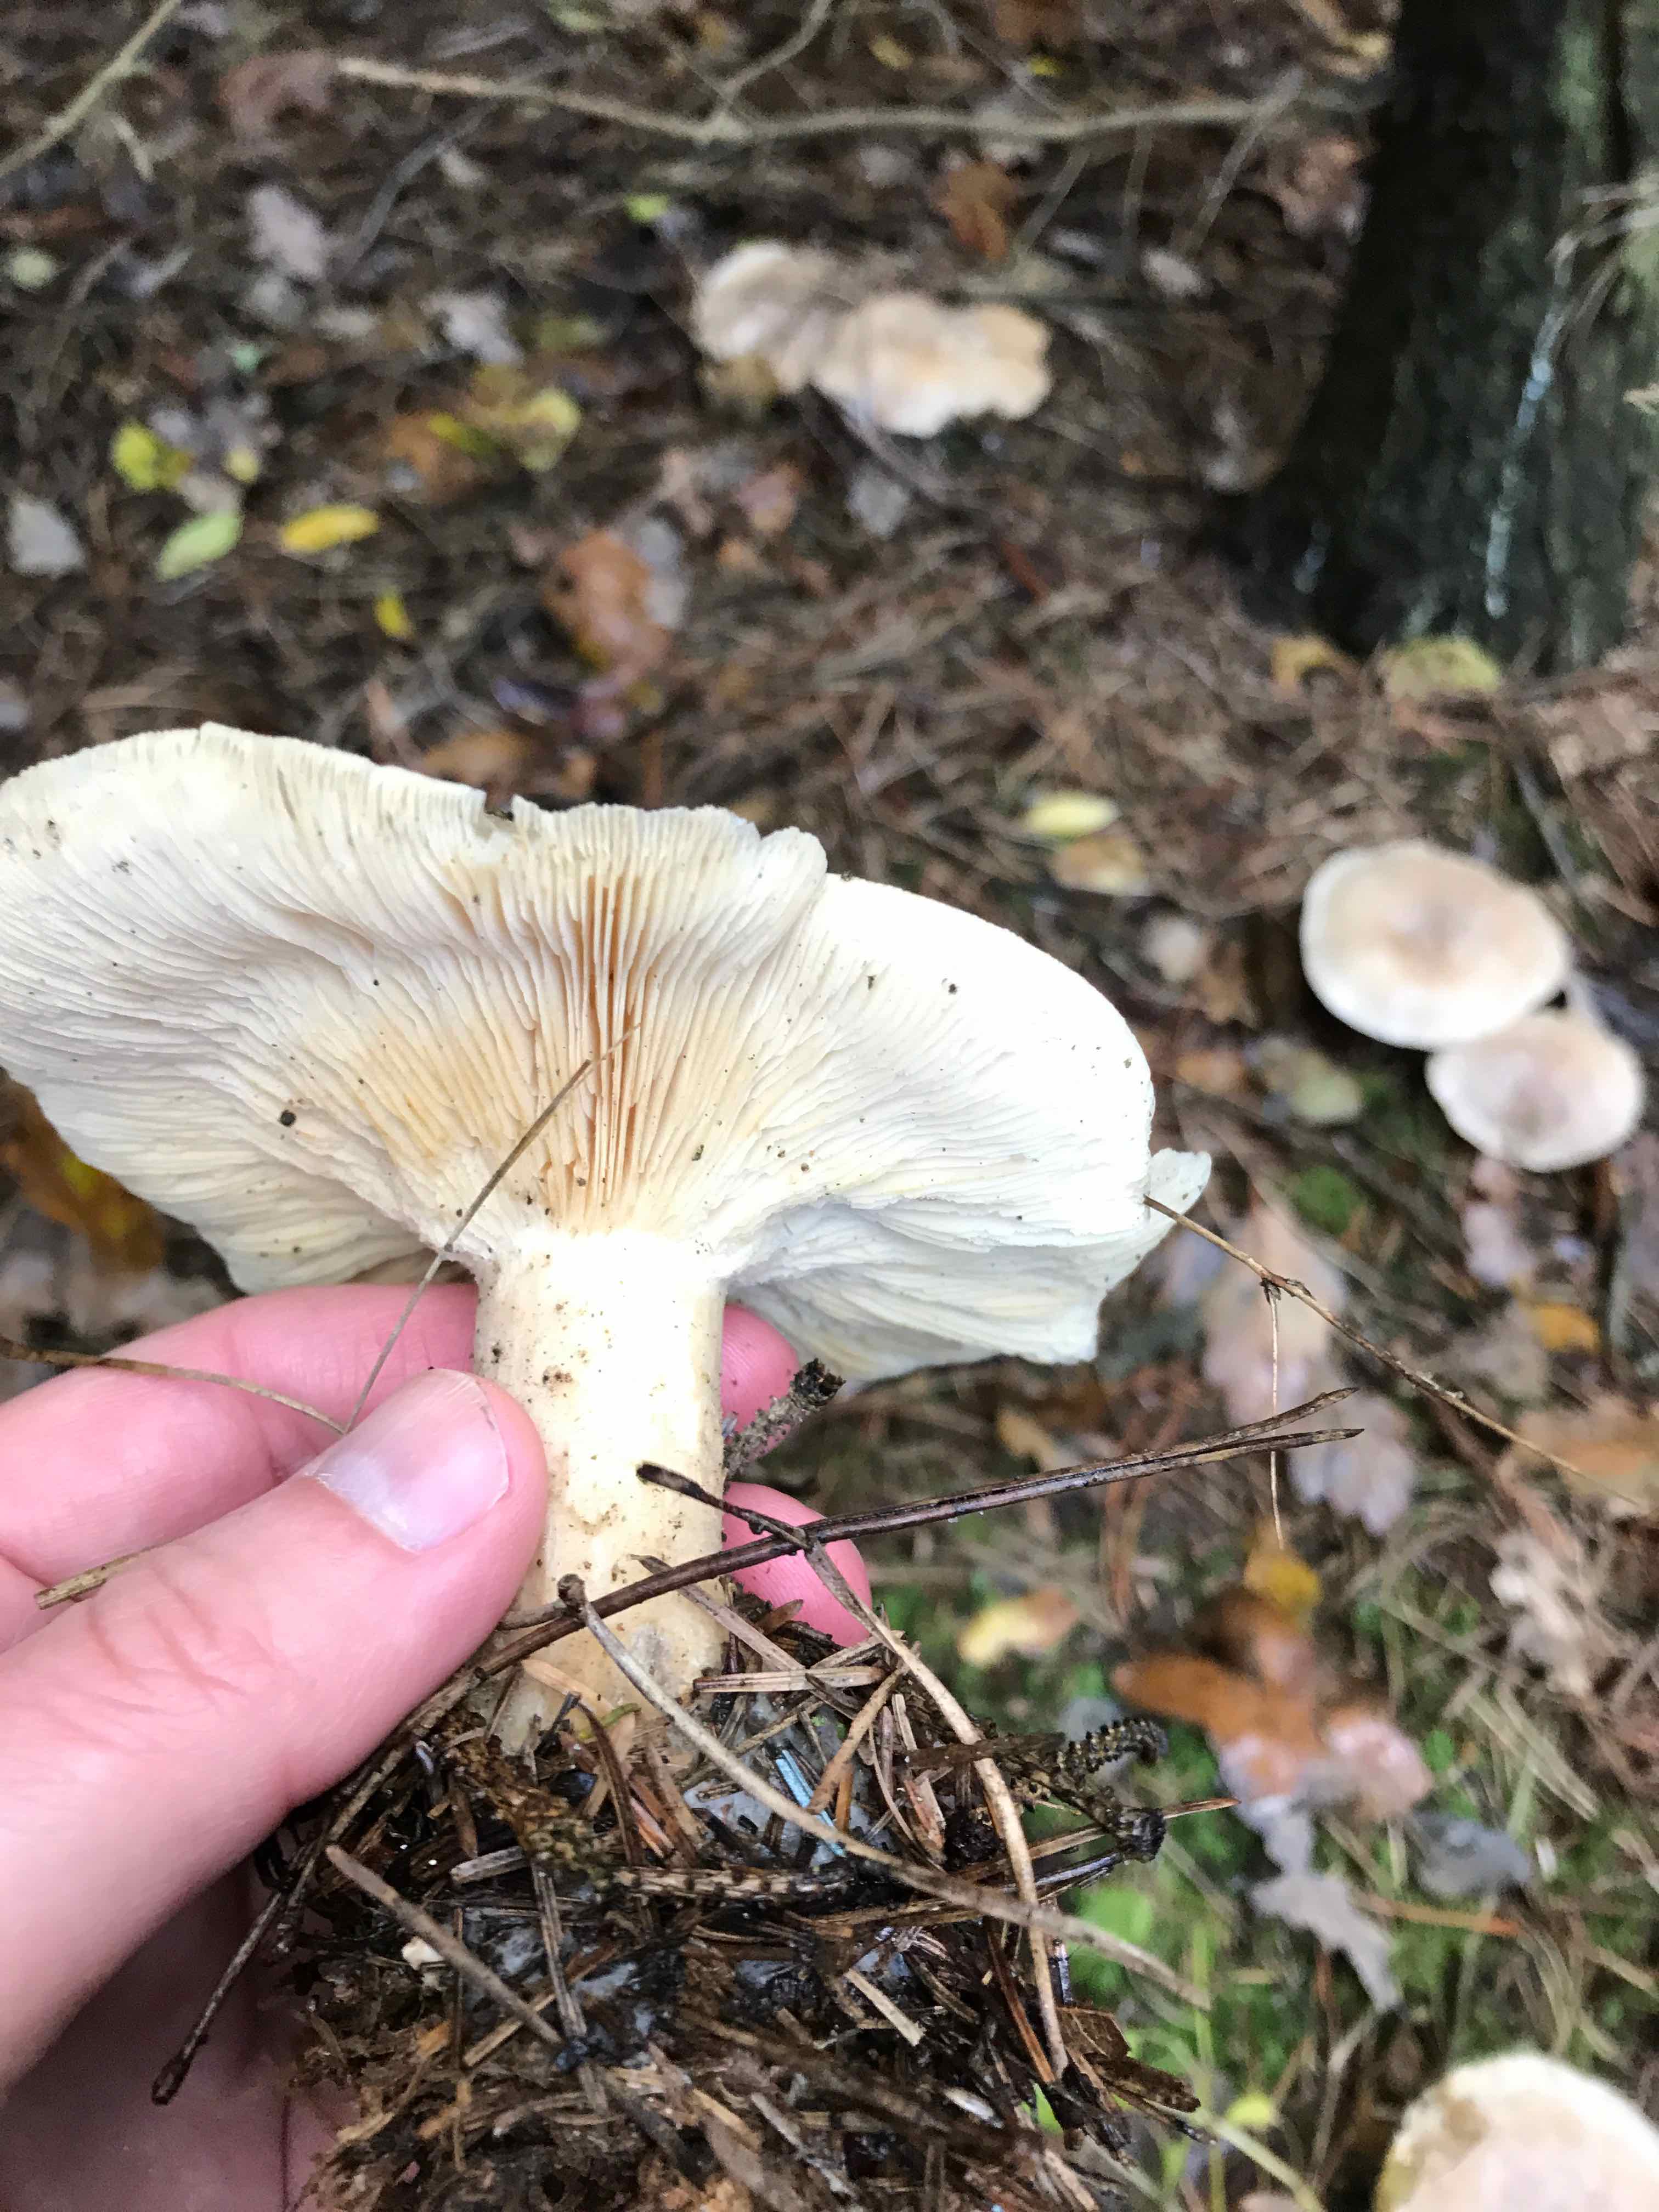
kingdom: Fungi
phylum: Basidiomycota
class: Agaricomycetes
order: Agaricales
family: Tricholomataceae
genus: Clitocybe
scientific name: Clitocybe nebularis
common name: tåge-tragthat
